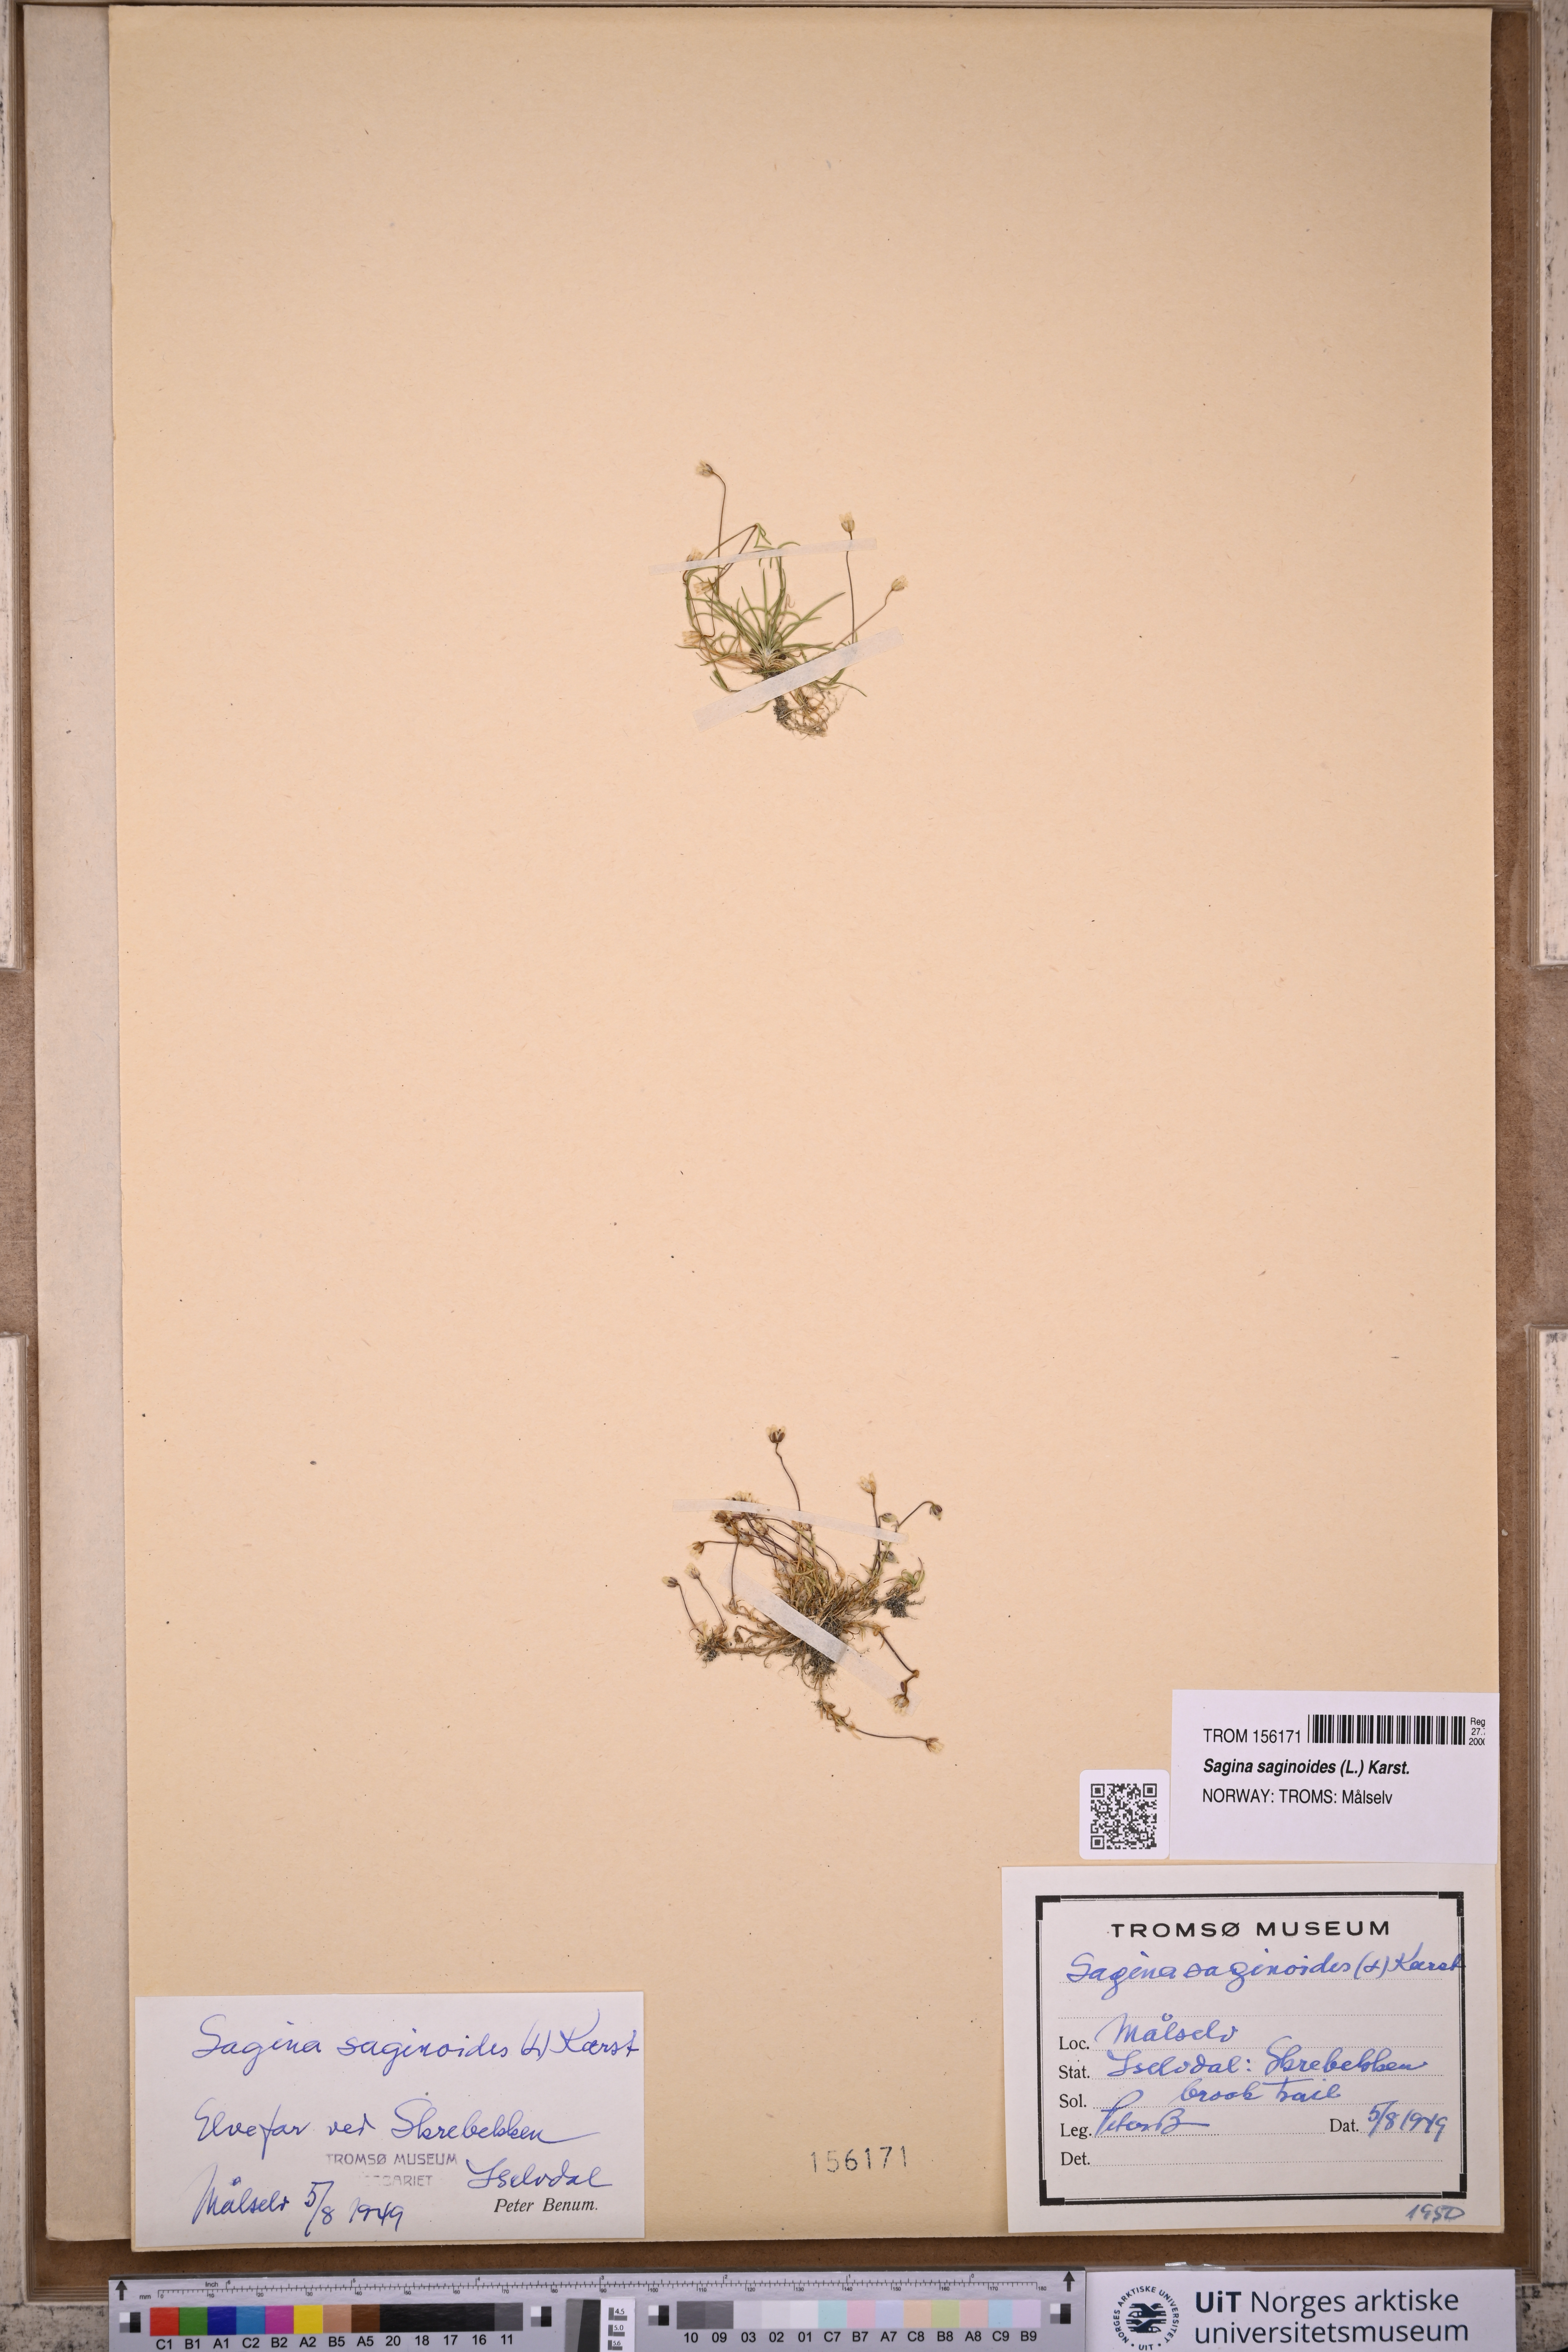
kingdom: Plantae
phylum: Tracheophyta
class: Magnoliopsida
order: Caryophyllales
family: Caryophyllaceae
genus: Sagina
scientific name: Sagina saginoides
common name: Alpine pearlwort
